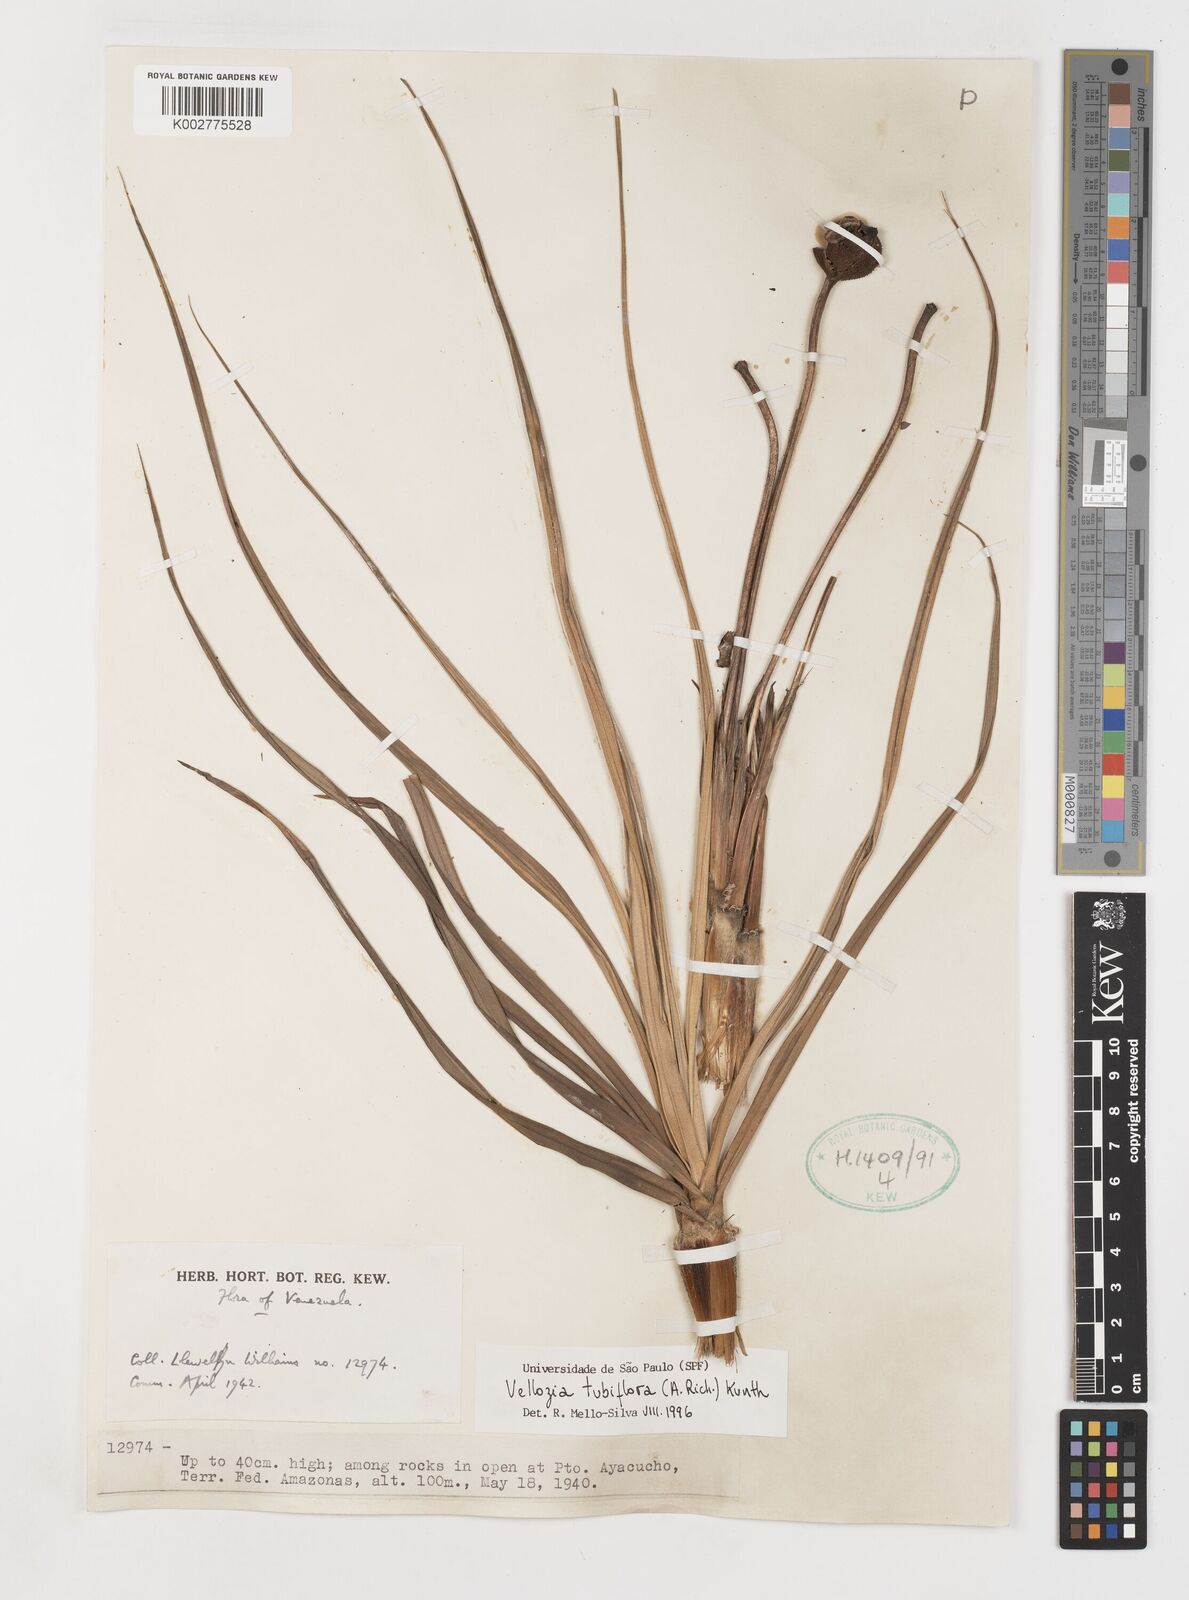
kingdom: Plantae
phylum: Tracheophyta
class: Liliopsida
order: Pandanales
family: Velloziaceae
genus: Vellozia
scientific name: Vellozia tubiflora
